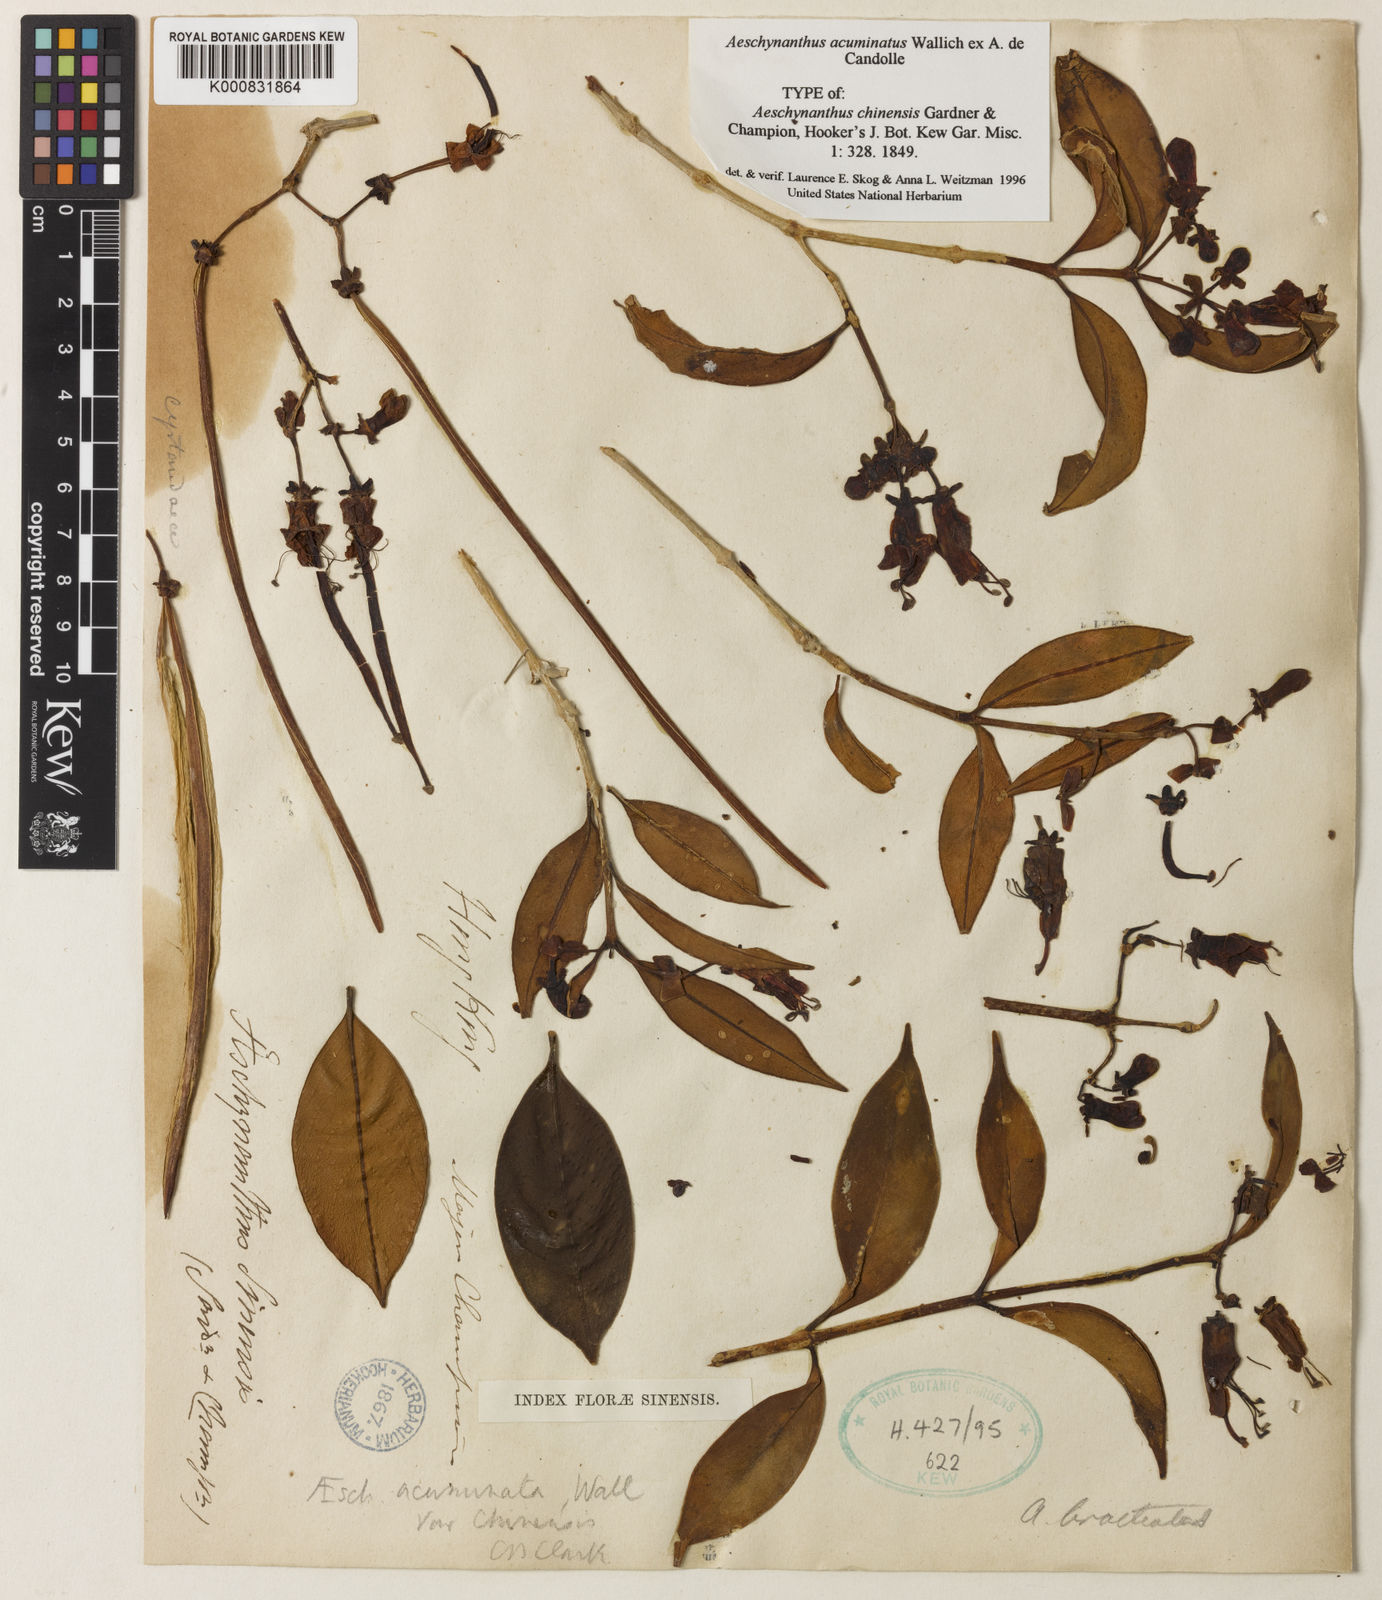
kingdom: Plantae
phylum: Tracheophyta
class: Magnoliopsida
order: Lamiales
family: Gesneriaceae
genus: Aeschynanthus
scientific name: Aeschynanthus acuminatus
